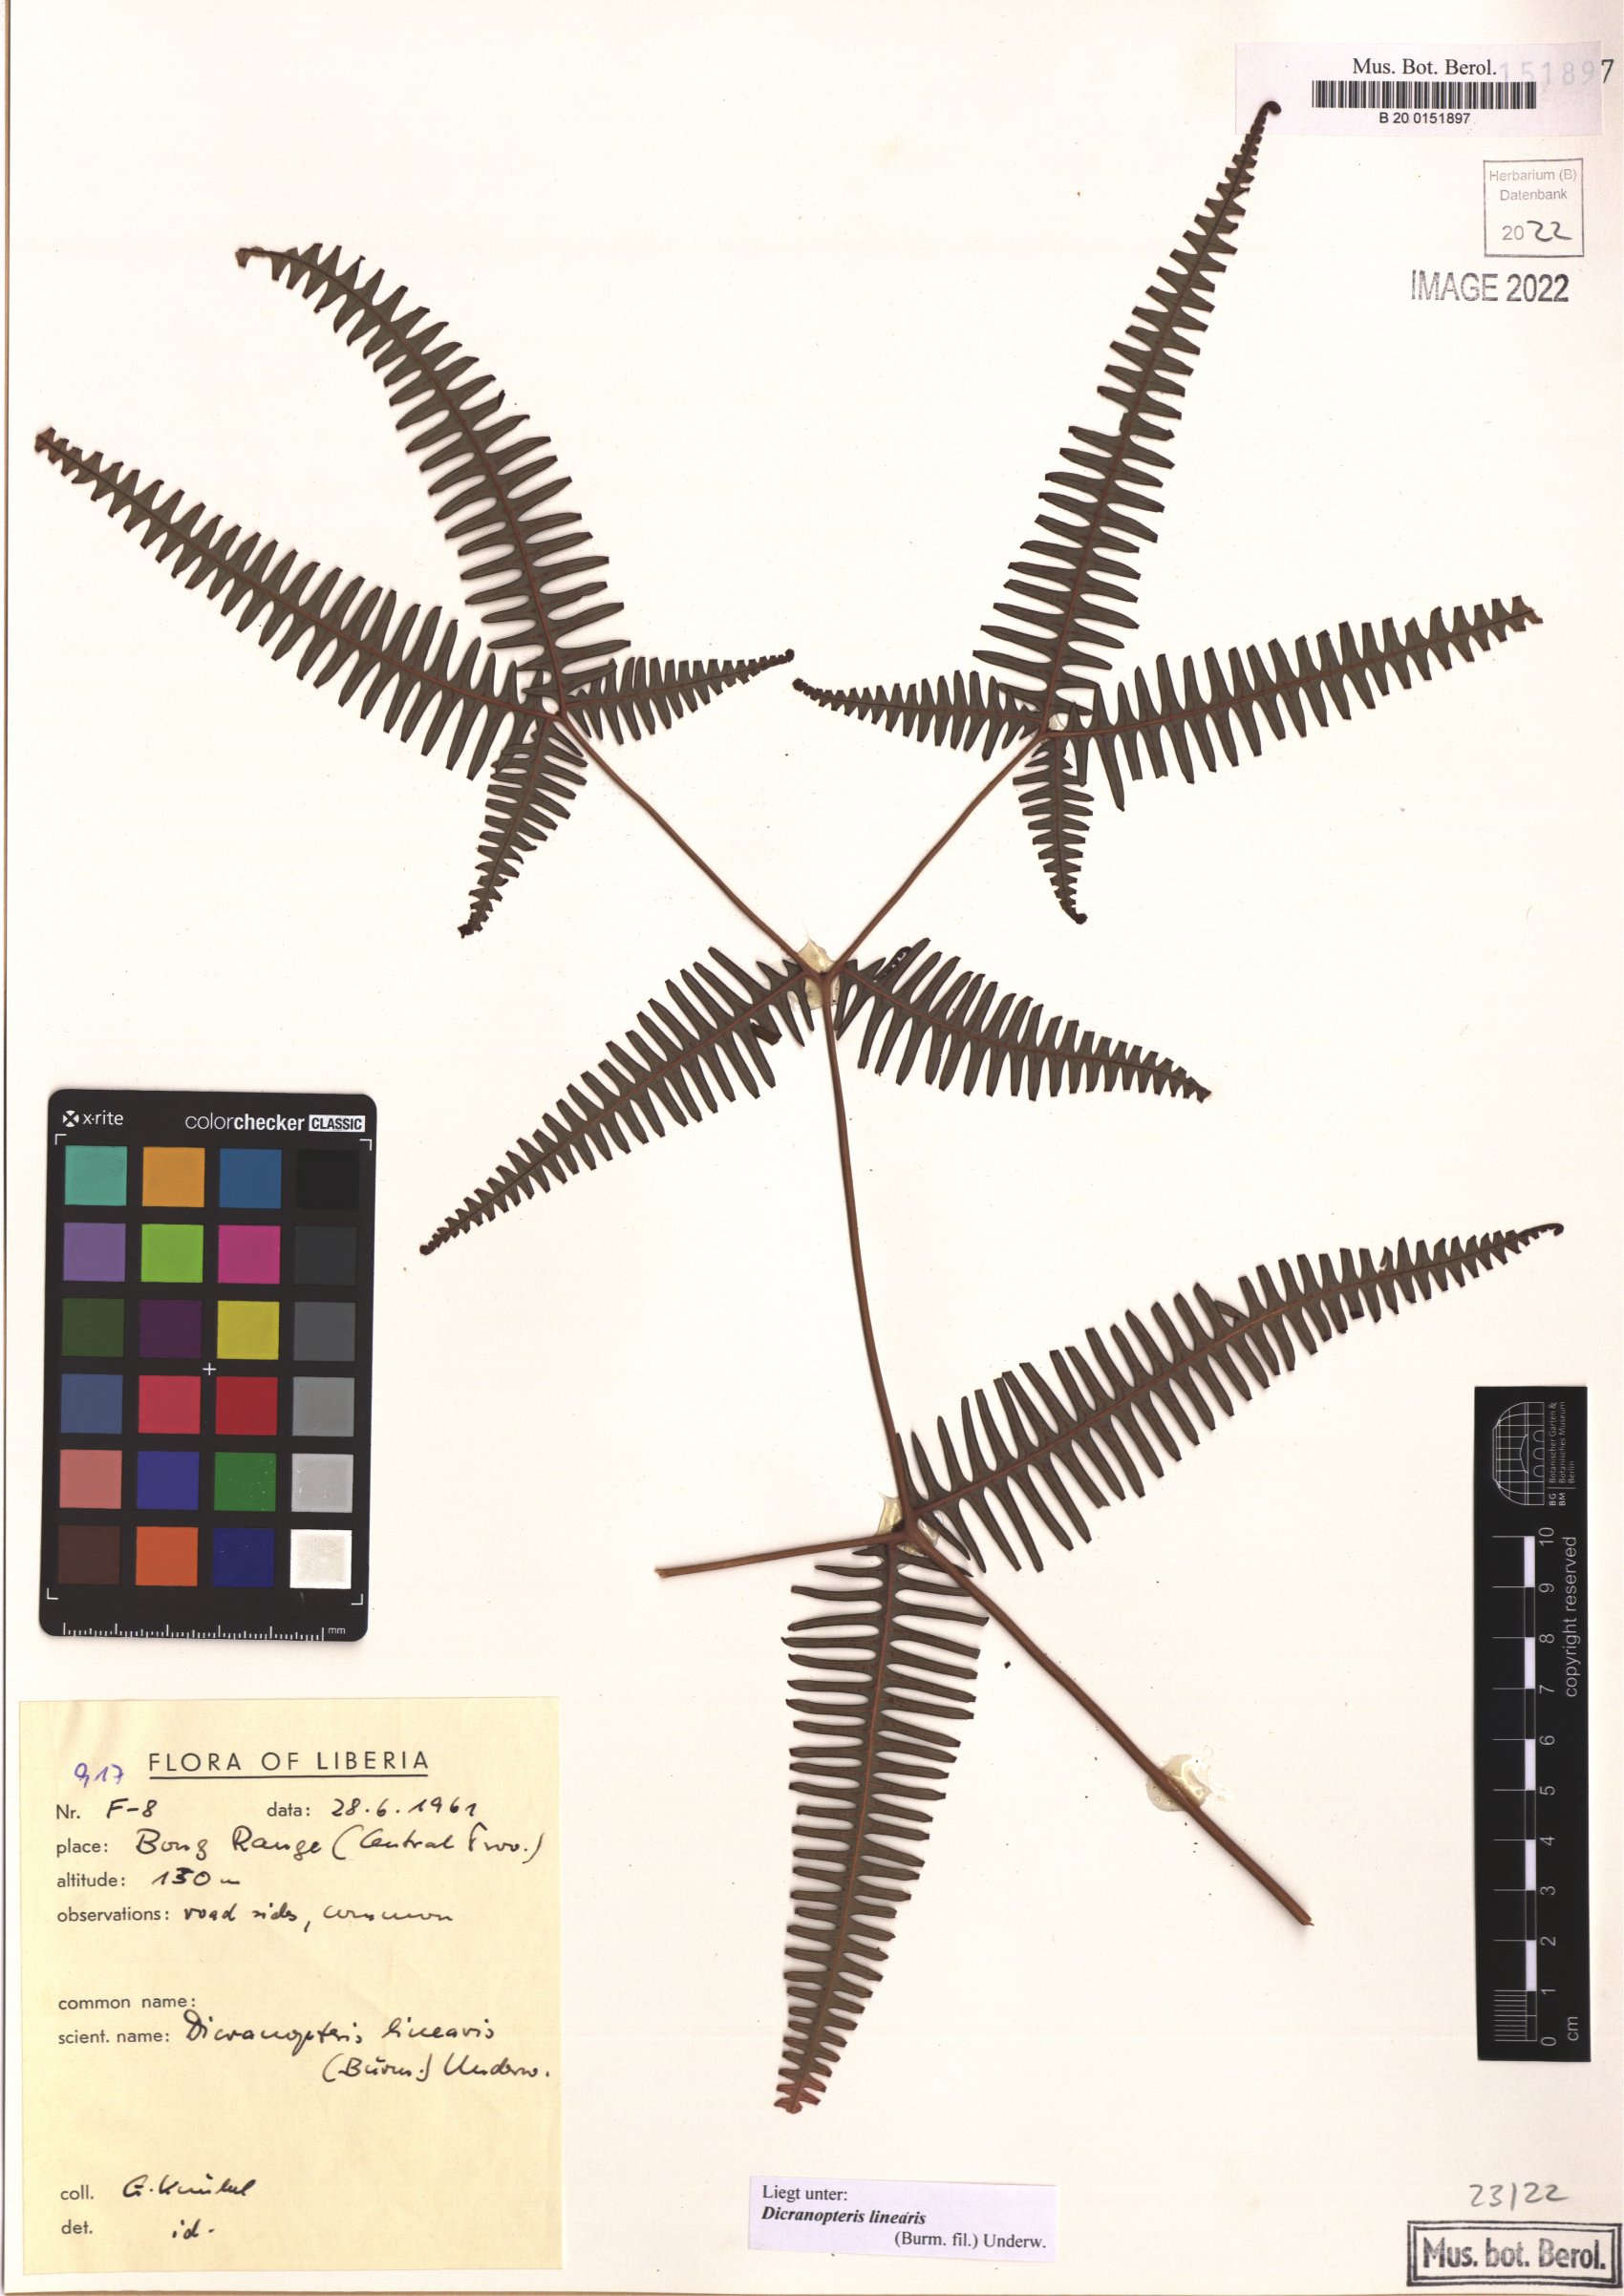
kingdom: Plantae
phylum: Tracheophyta
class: Polypodiopsida
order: Gleicheniales
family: Gleicheniaceae
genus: Dicranopteris
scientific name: Dicranopteris linearis
